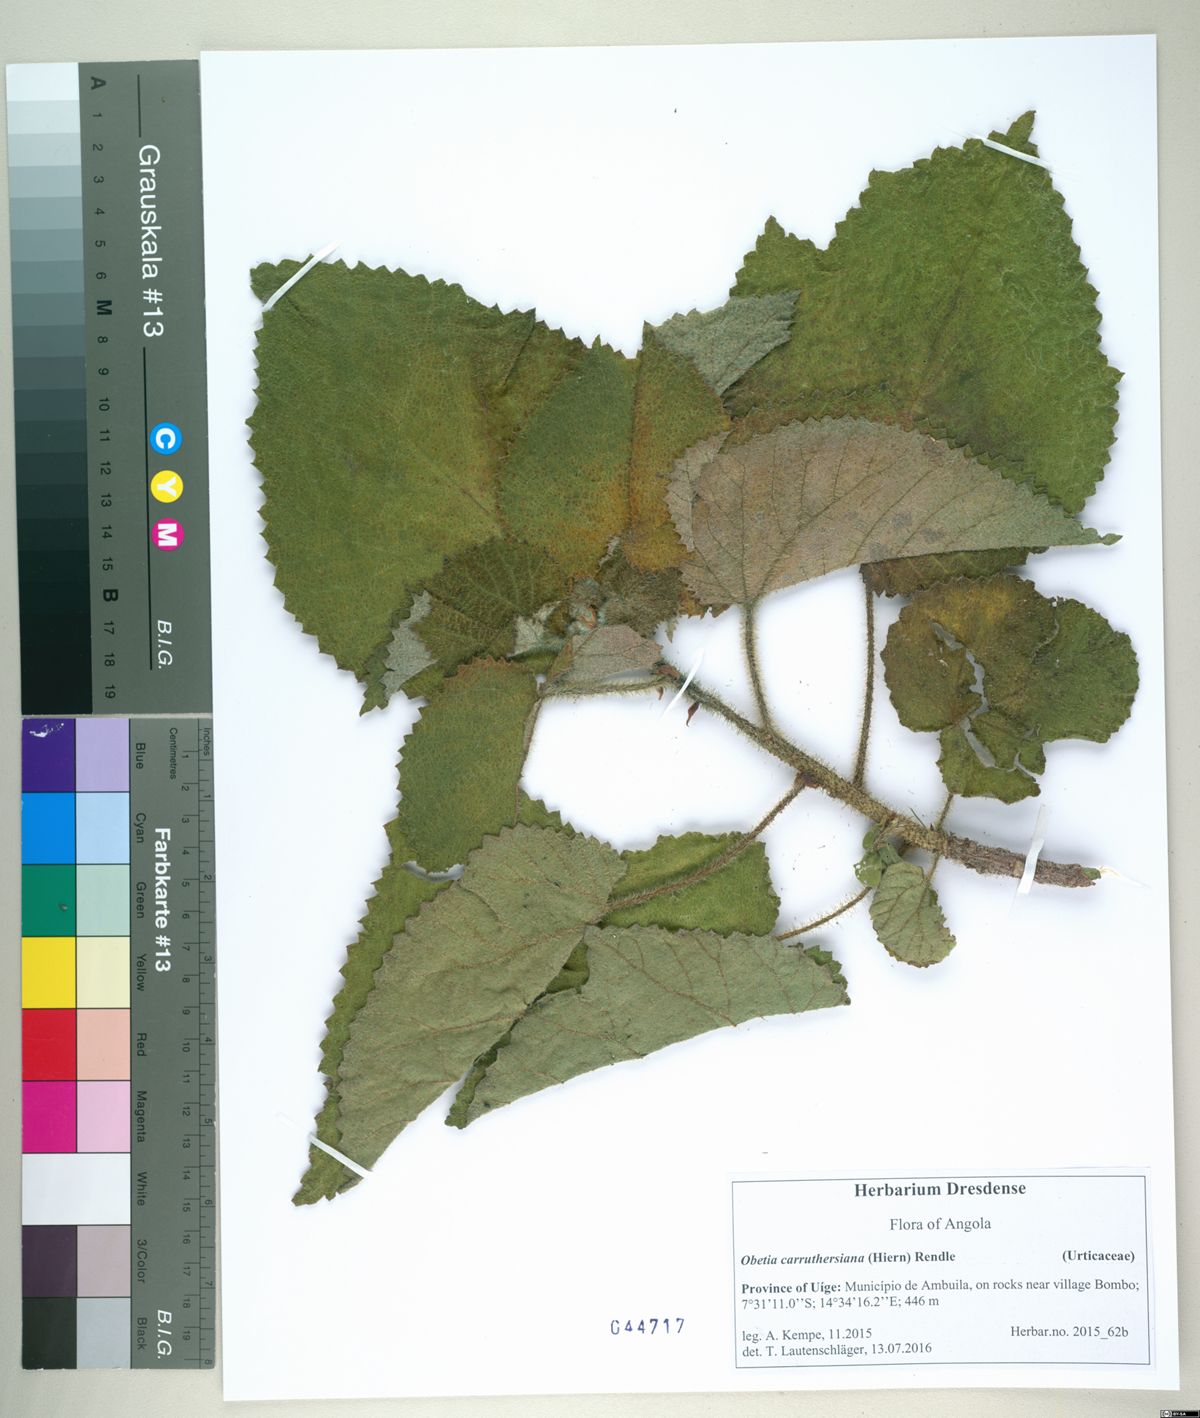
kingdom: Plantae
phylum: Tracheophyta
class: Magnoliopsida
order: Rosales
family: Urticaceae
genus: Obetia
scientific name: Obetia carruthersiana
